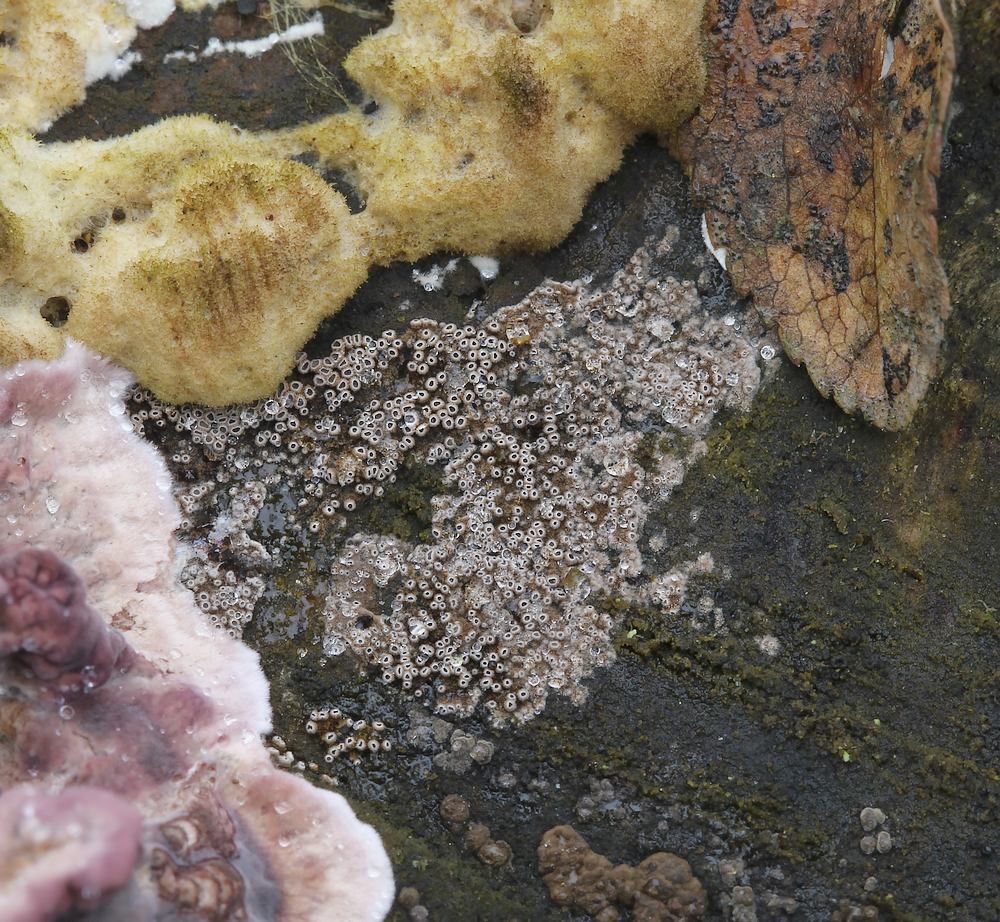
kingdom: Fungi
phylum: Basidiomycota
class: Agaricomycetes
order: Agaricales
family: Niaceae
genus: Merismodes
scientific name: Merismodes anomala
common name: almindelig læderskål
